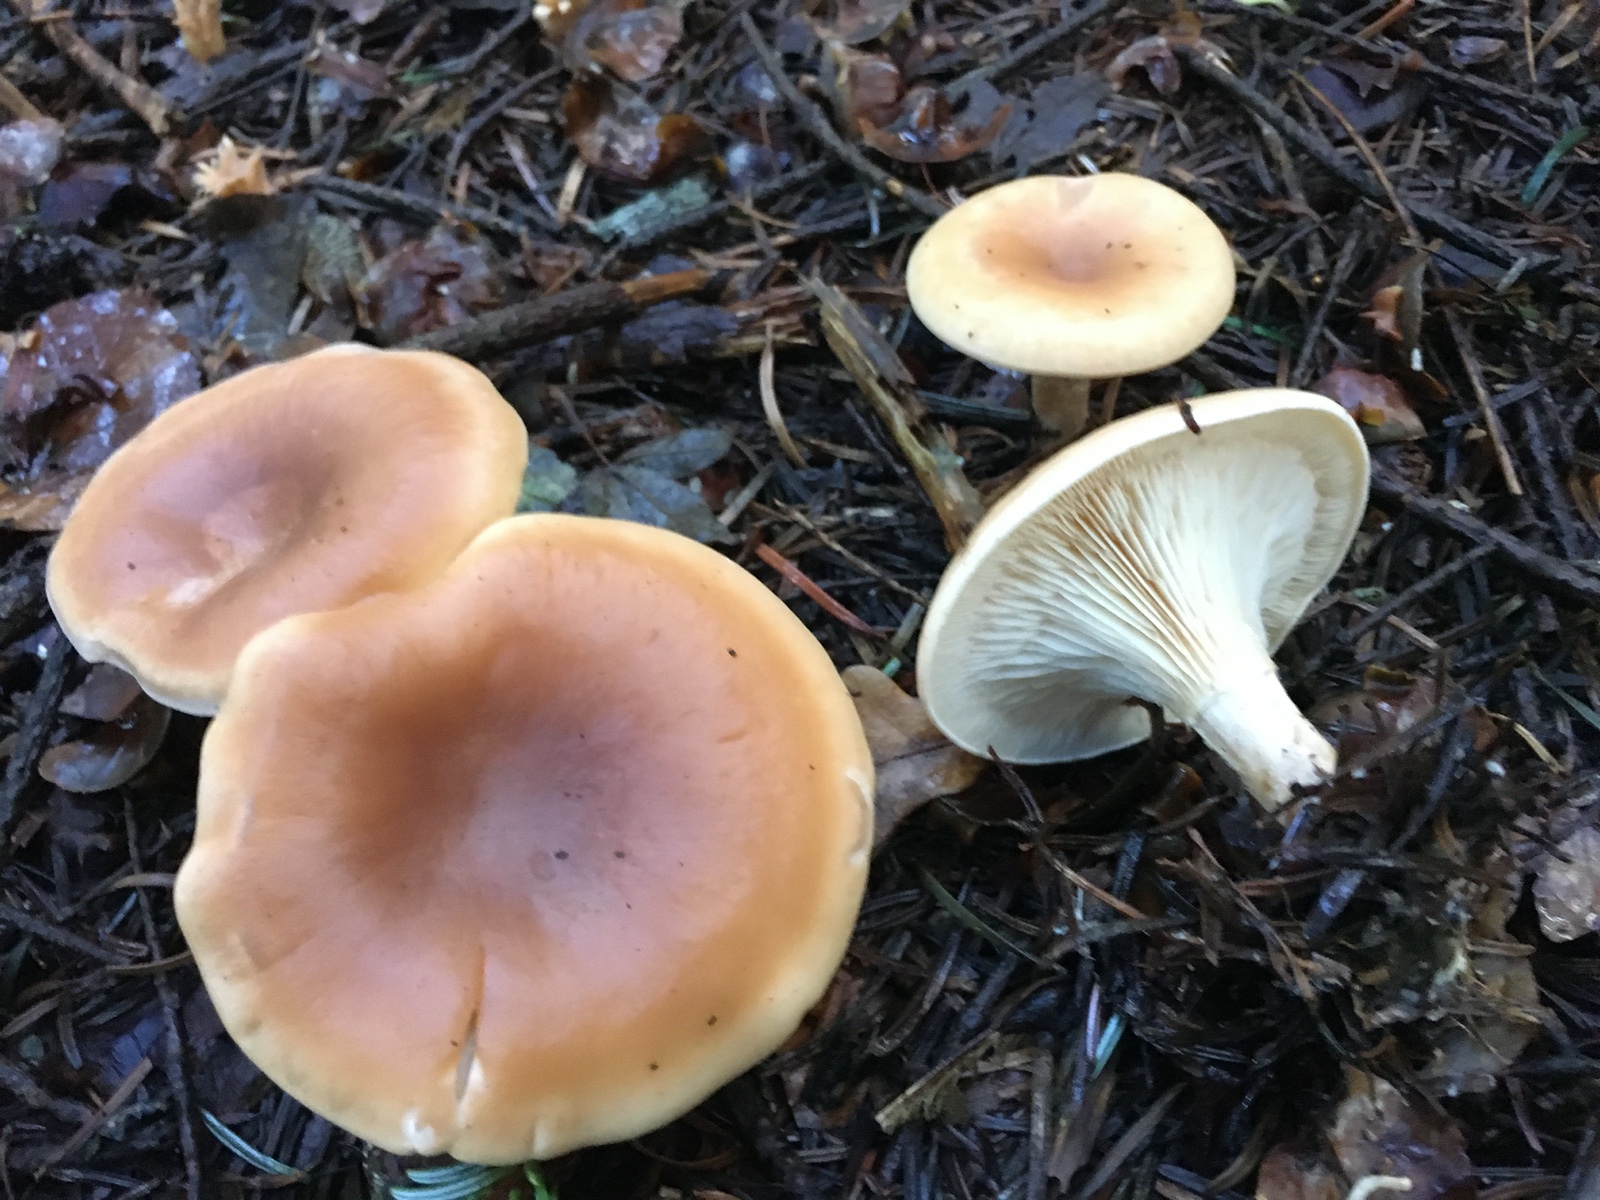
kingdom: Fungi
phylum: Basidiomycota
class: Agaricomycetes
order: Agaricales
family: Tricholomataceae
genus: Paralepista
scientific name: Paralepista flaccida
